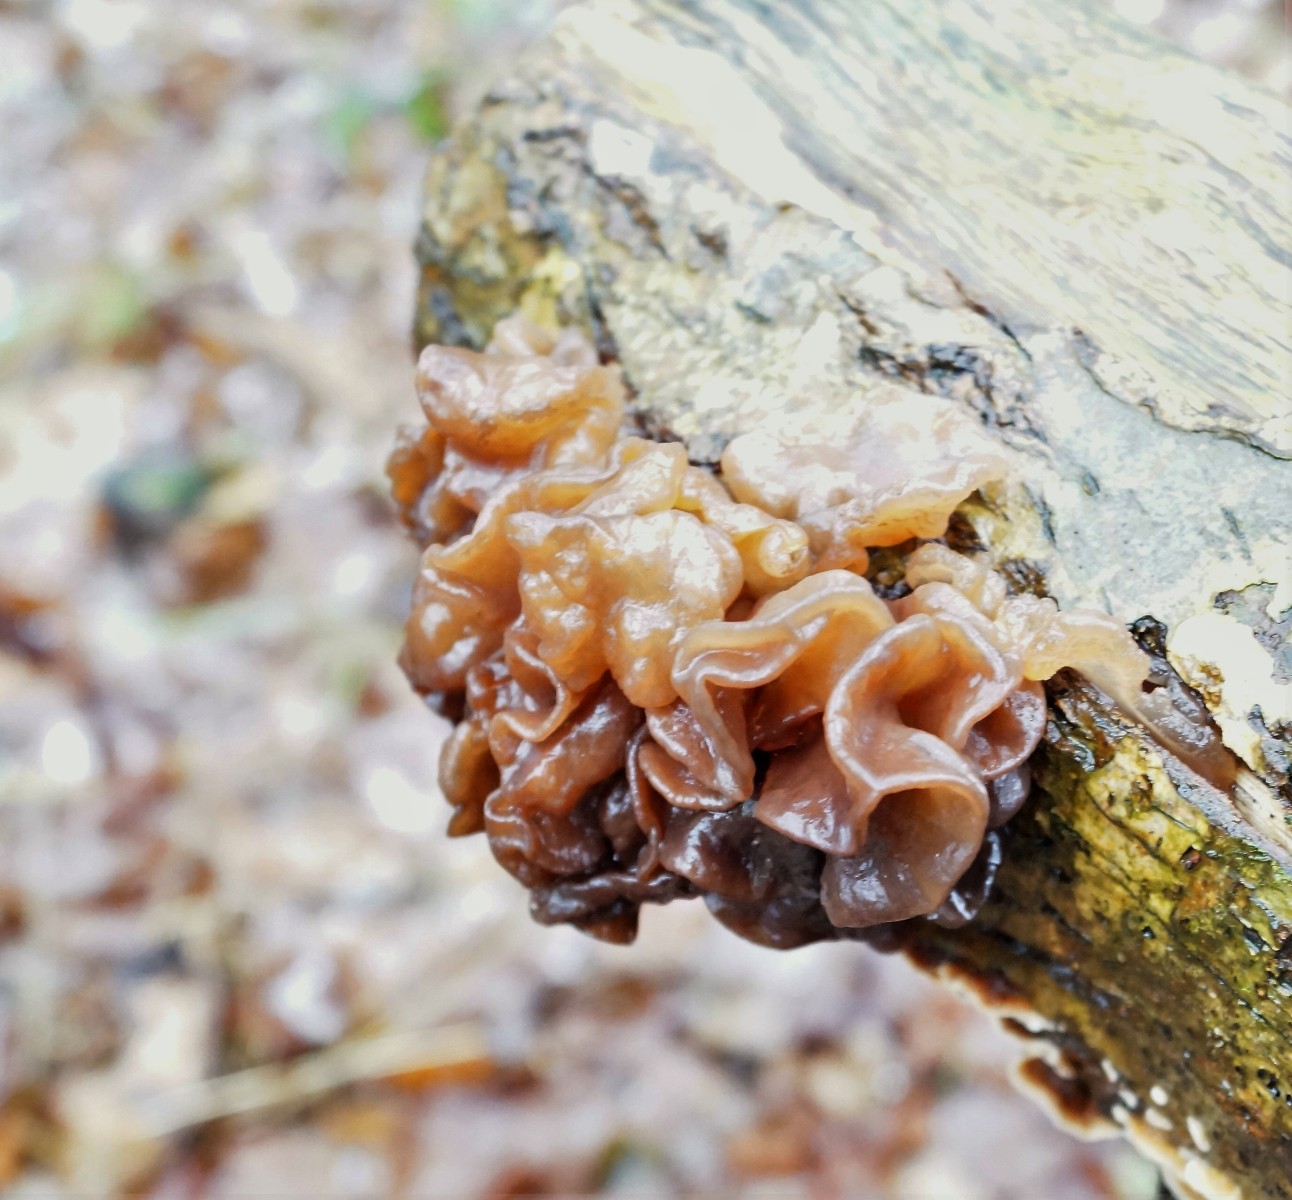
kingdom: Fungi
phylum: Basidiomycota
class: Tremellomycetes
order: Tremellales
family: Tremellaceae
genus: Phaeotremella
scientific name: Phaeotremella frondosa
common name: kæmpe-bævresvamp
